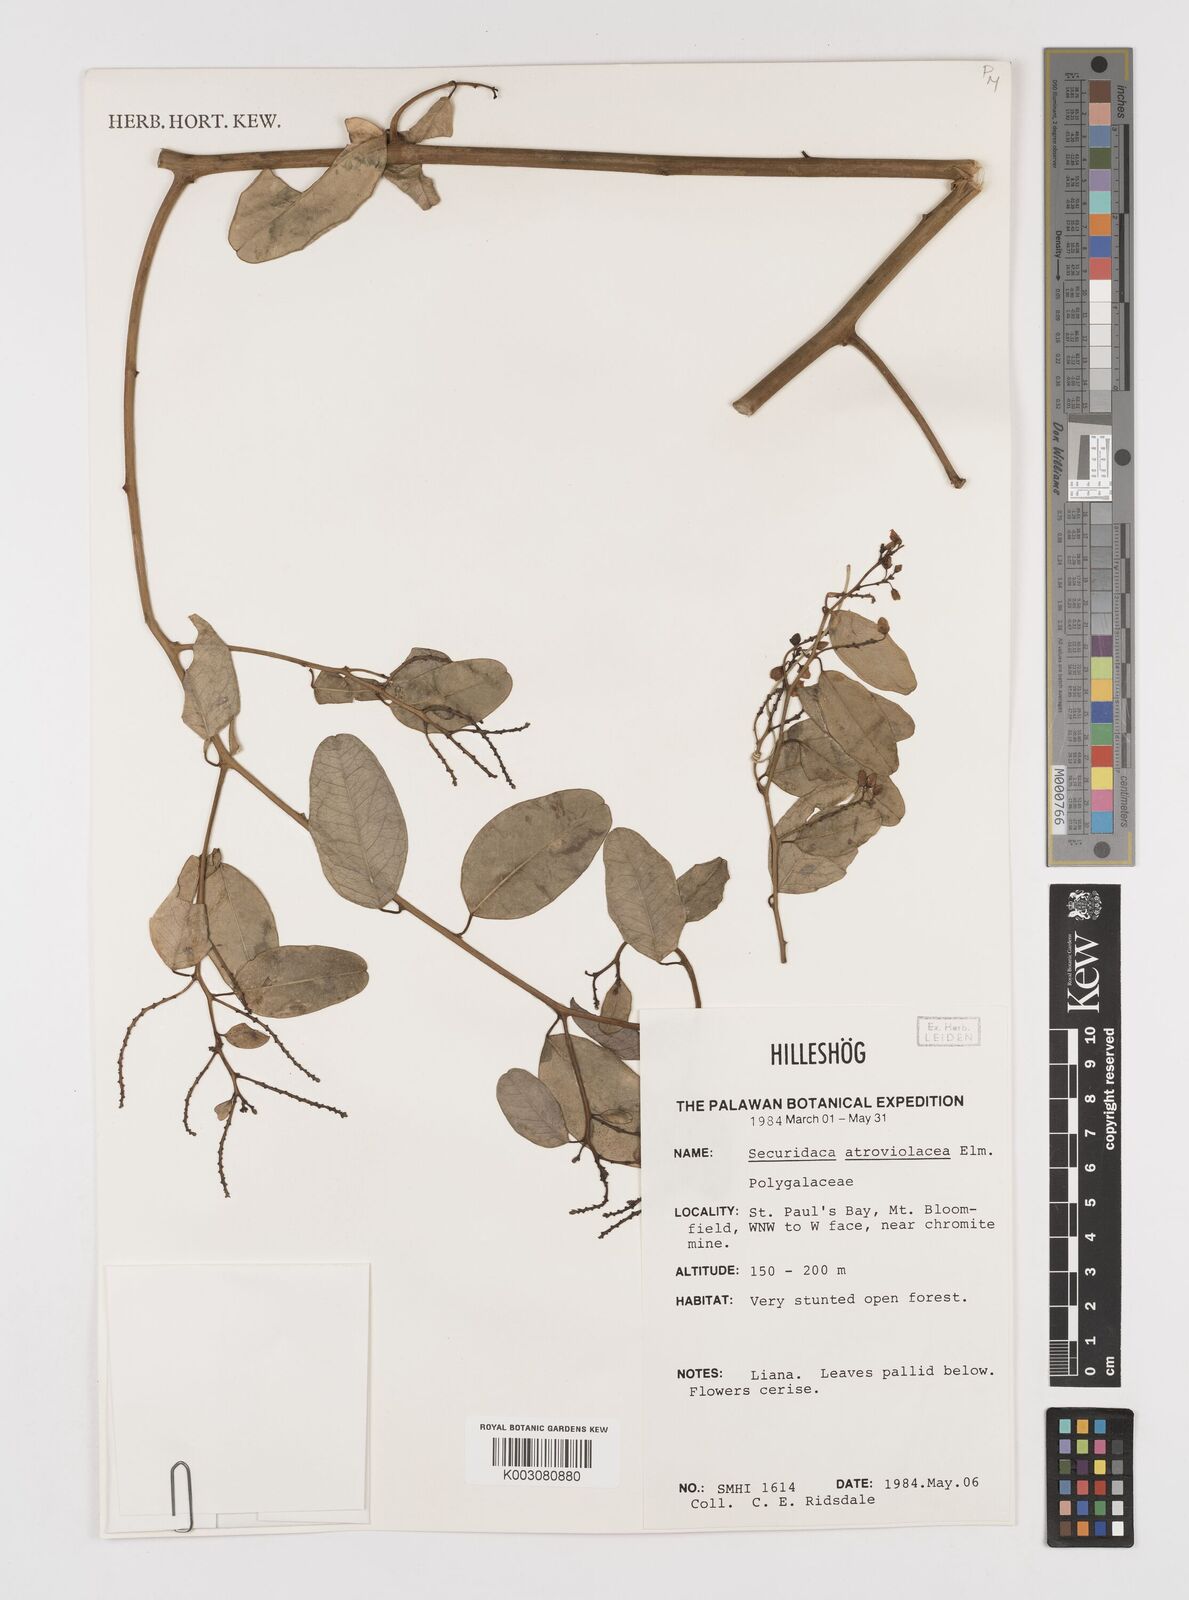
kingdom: Plantae
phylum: Tracheophyta
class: Magnoliopsida
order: Fabales
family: Polygalaceae
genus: Securidaca
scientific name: Securidaca atroviolacea
